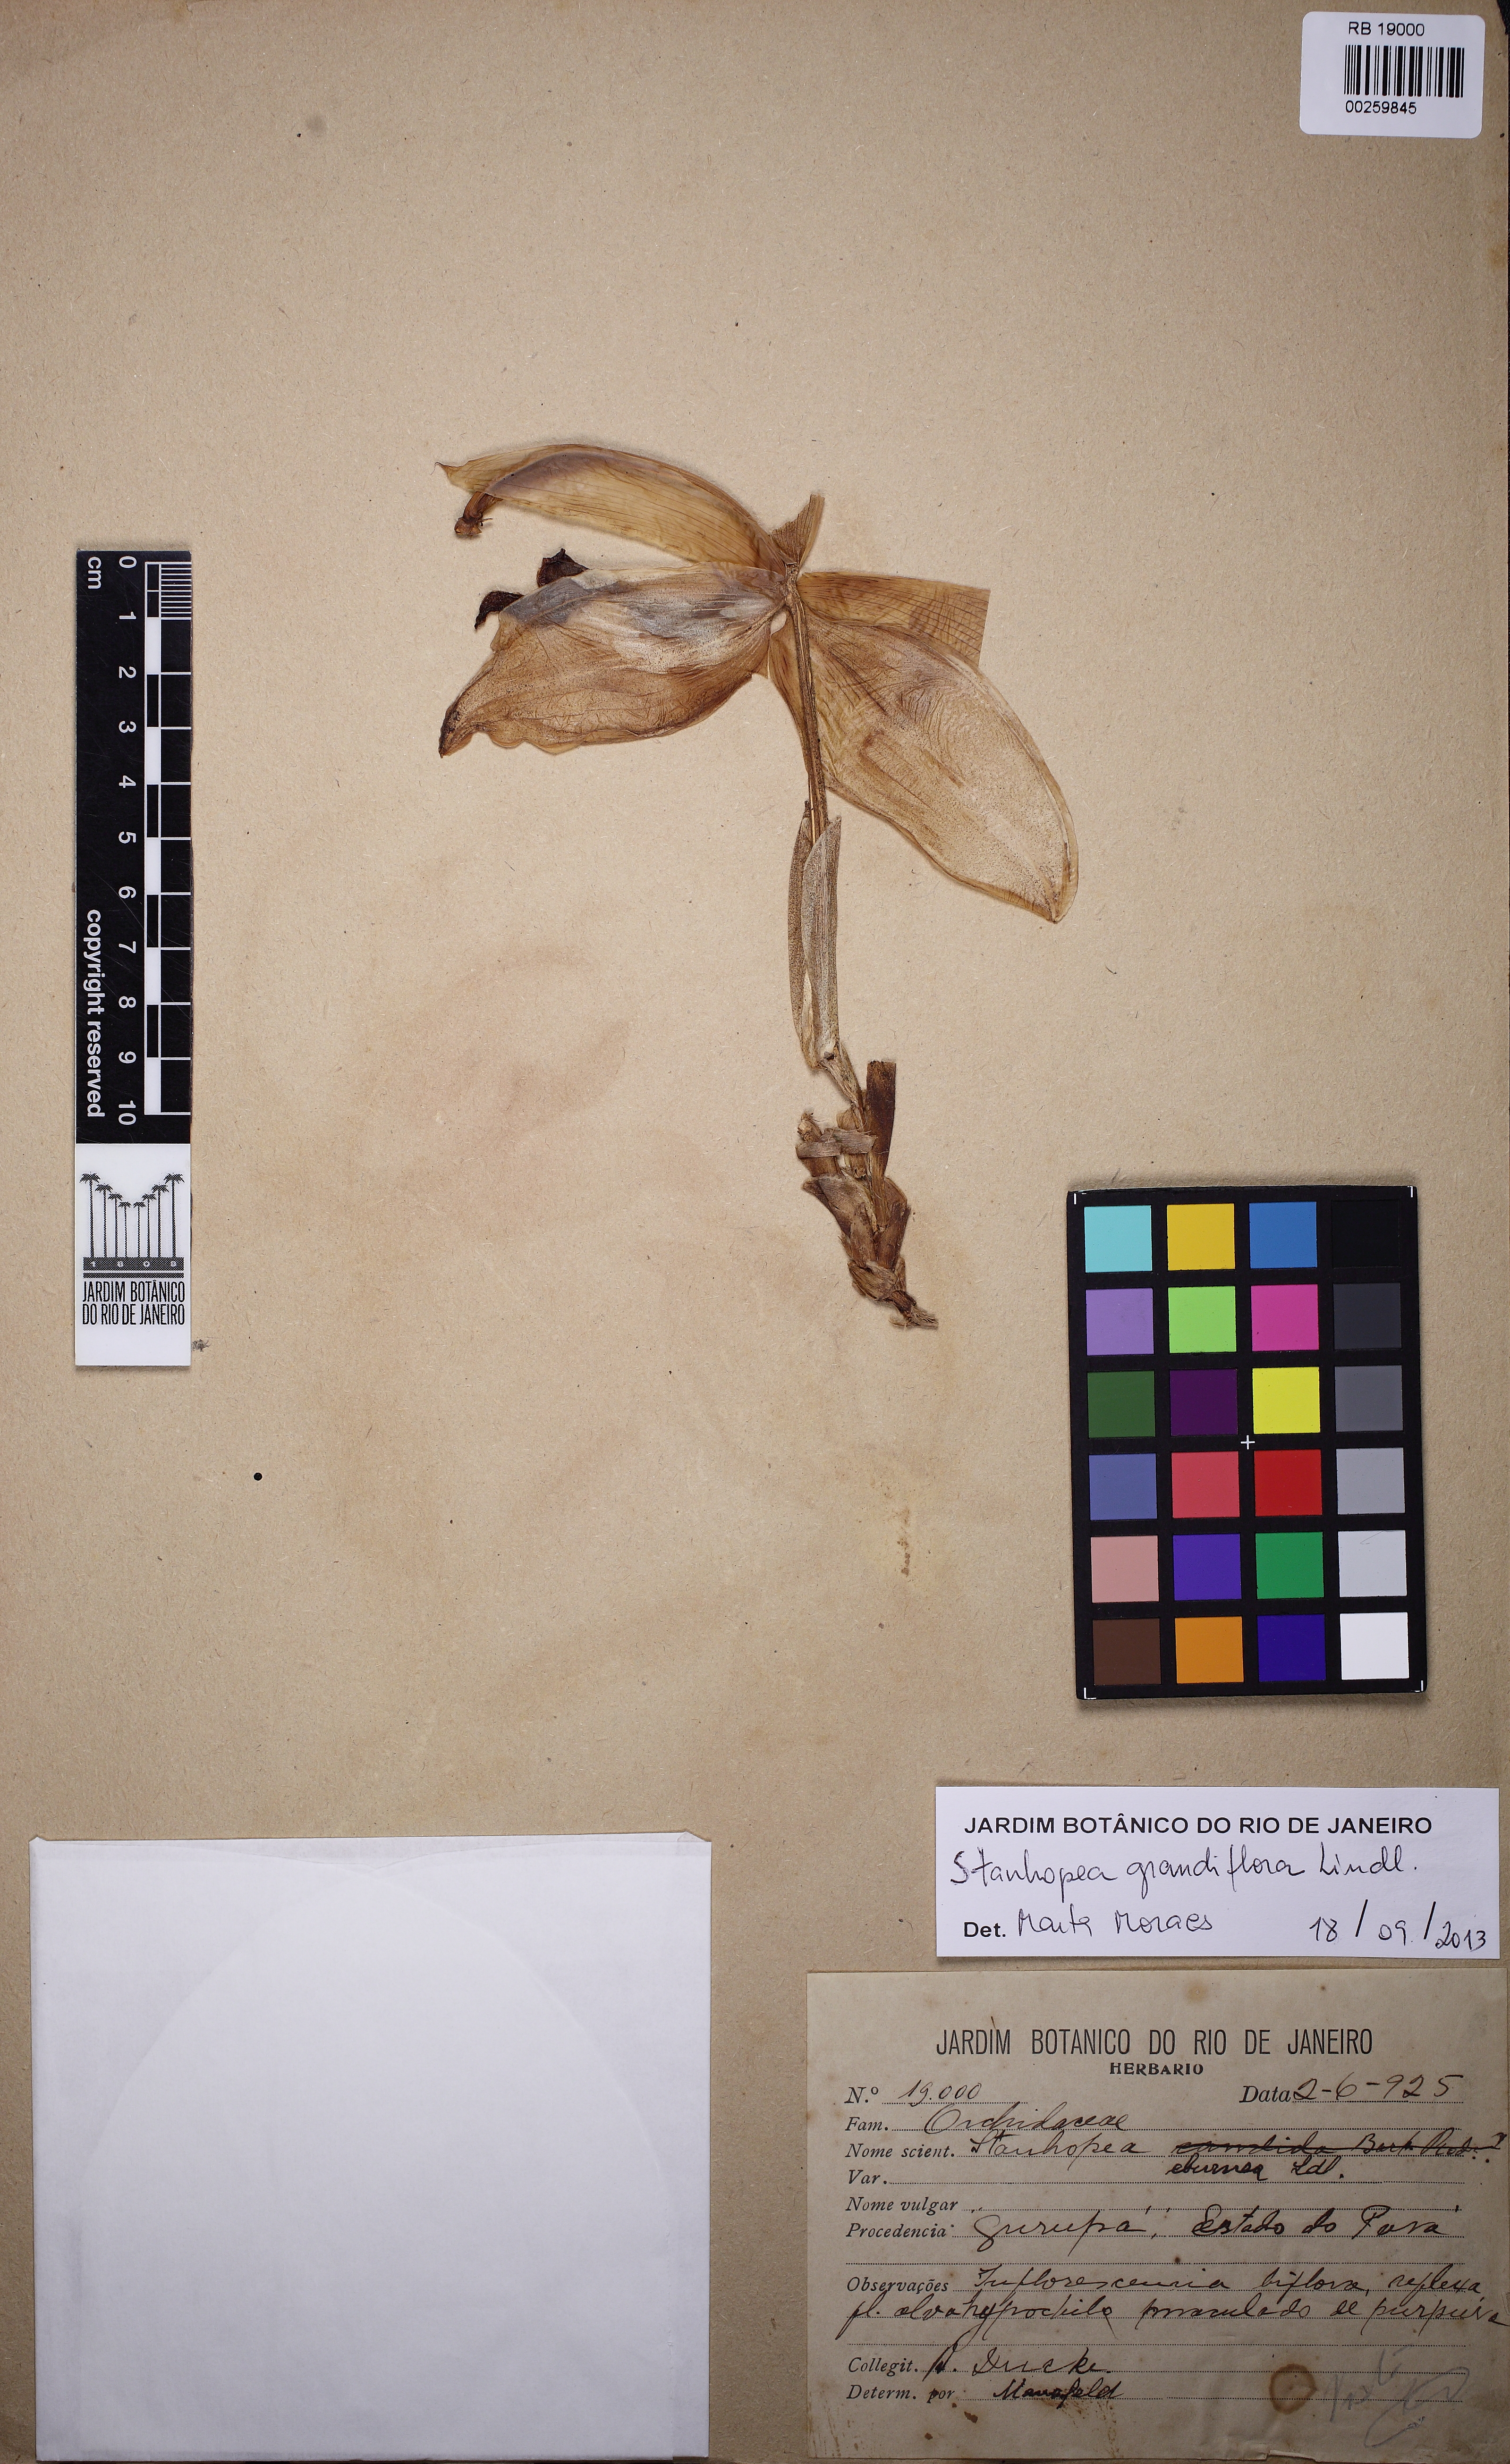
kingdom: Plantae
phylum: Tracheophyta
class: Liliopsida
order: Asparagales
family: Orchidaceae
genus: Stanhopea
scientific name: Stanhopea grandiflora
